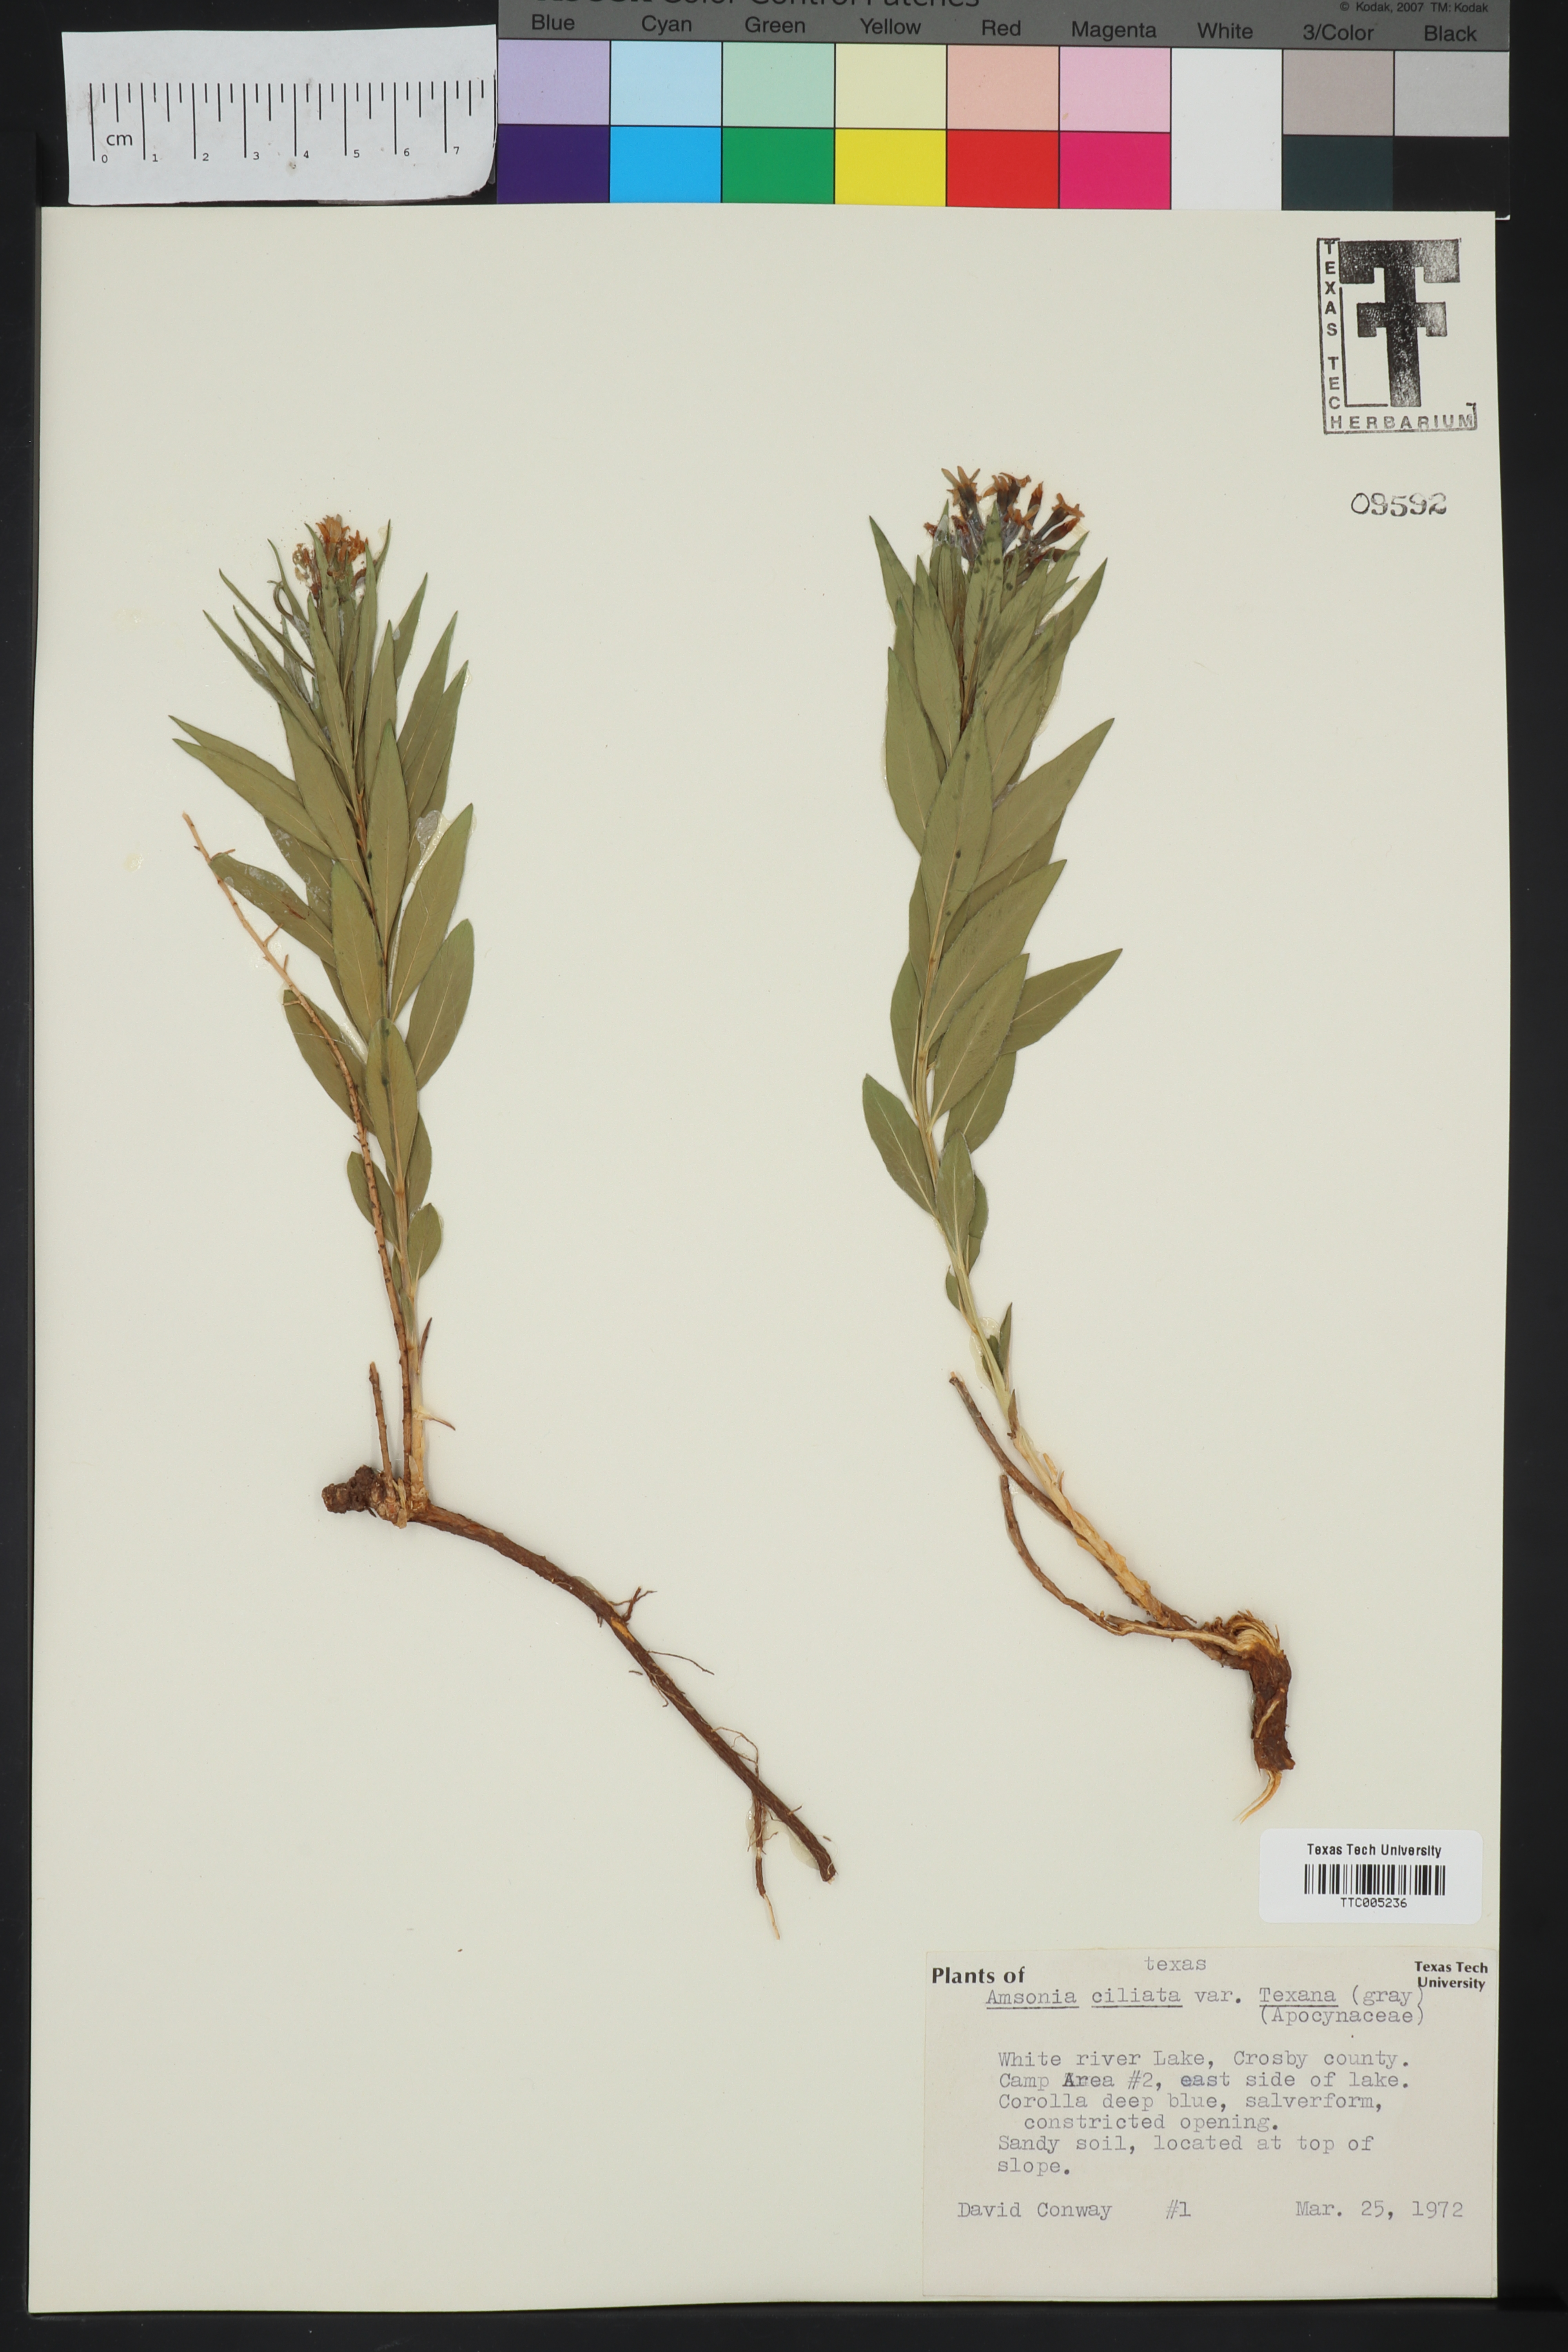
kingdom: Plantae
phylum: Tracheophyta
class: Magnoliopsida
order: Gentianales
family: Apocynaceae
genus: Amsonia
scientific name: Amsonia ciliata
